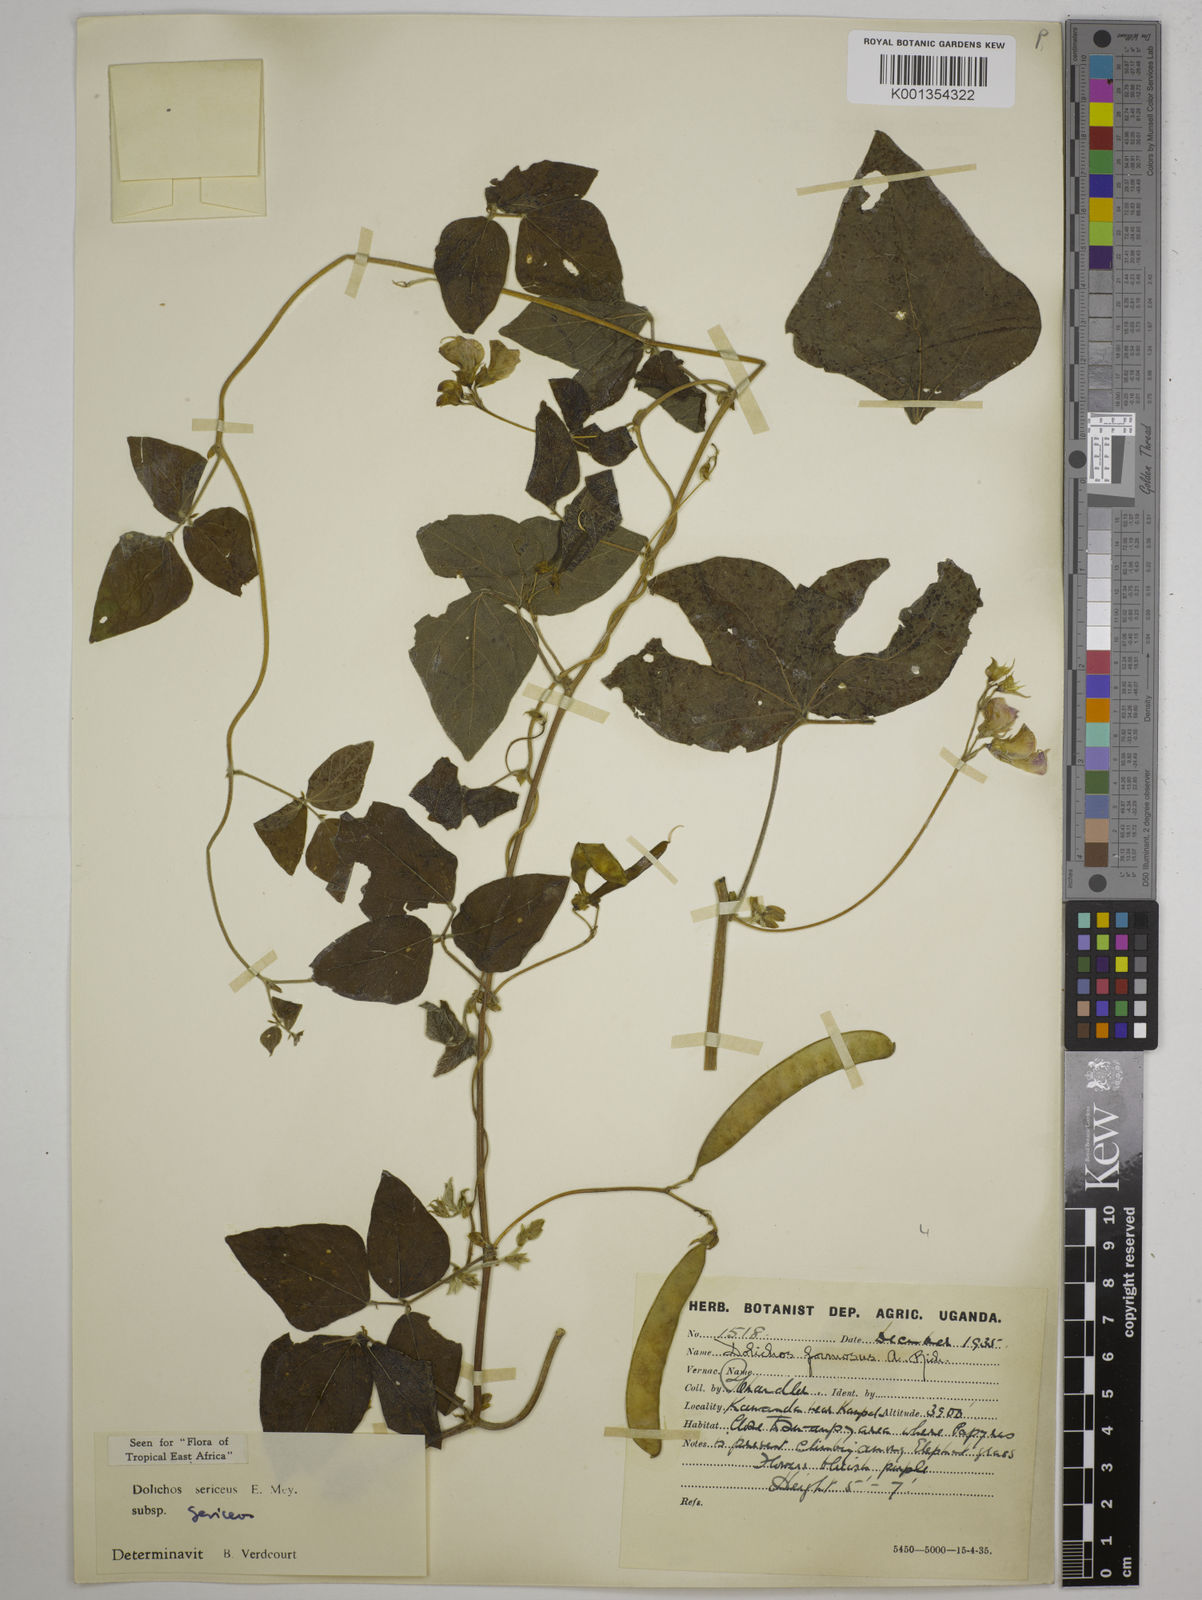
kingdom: Plantae
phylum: Tracheophyta
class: Magnoliopsida
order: Fabales
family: Fabaceae
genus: Dolichos
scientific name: Dolichos sericeus
